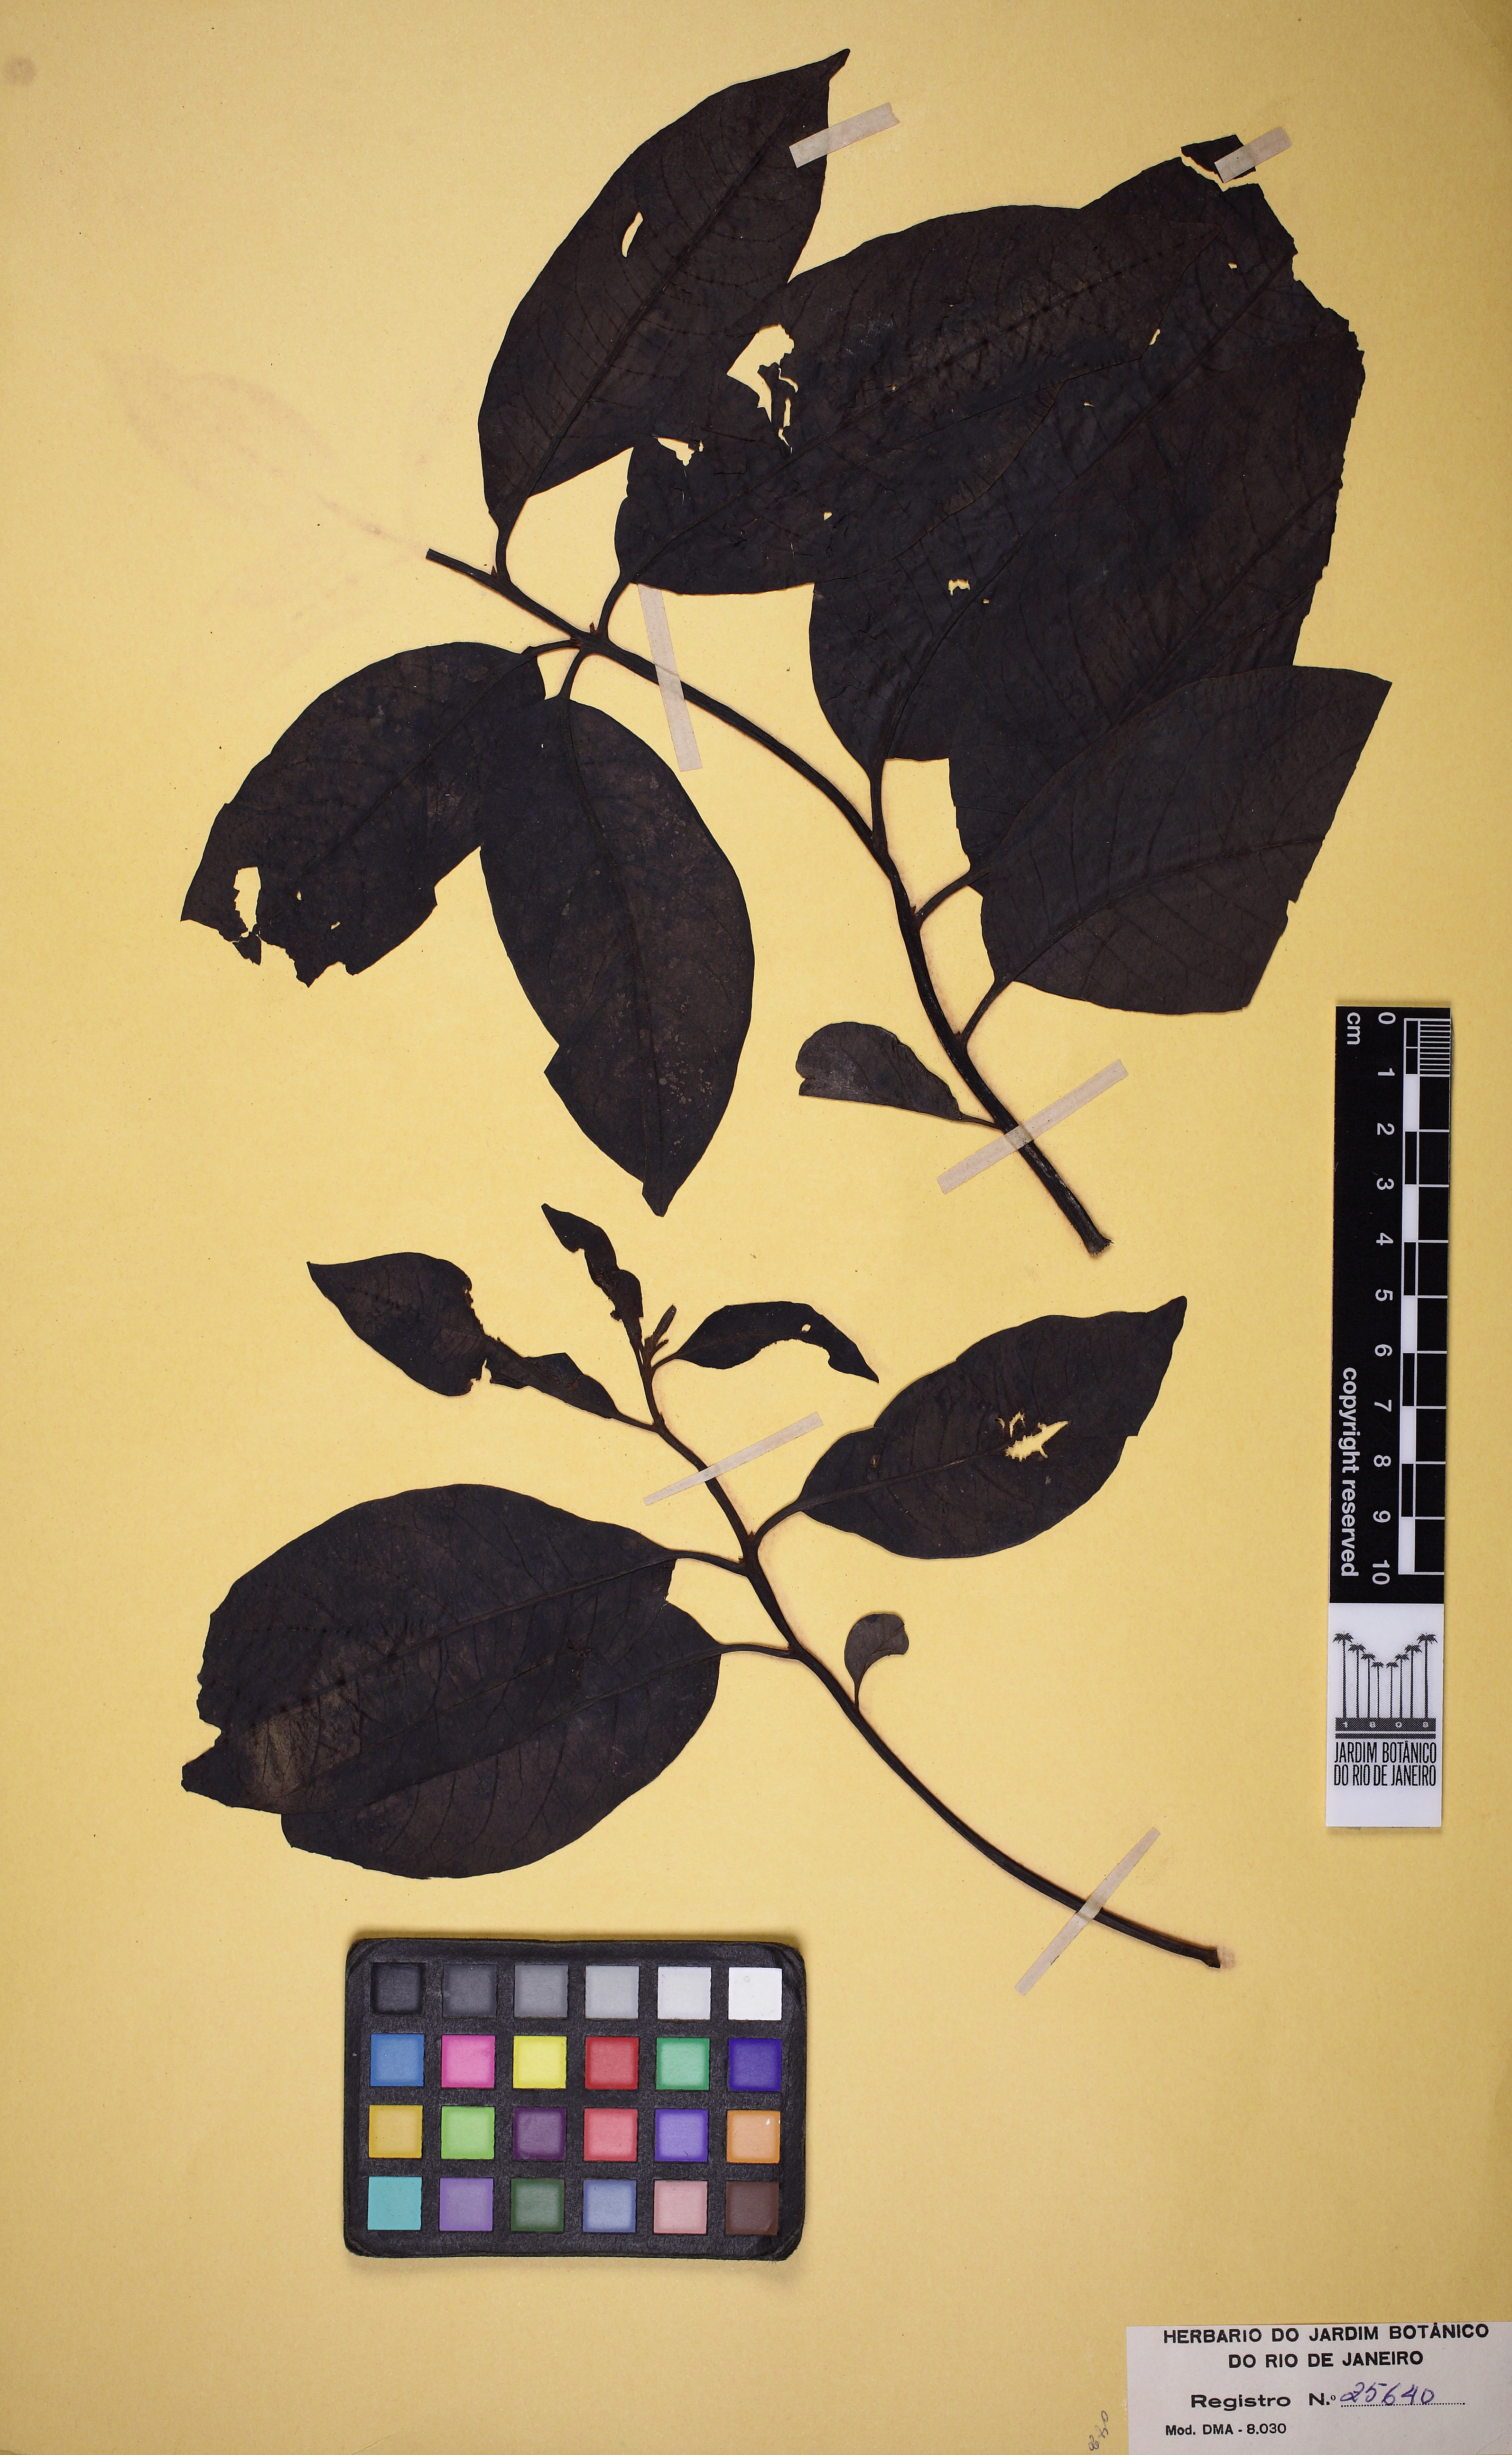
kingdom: Plantae
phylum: Tracheophyta
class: Magnoliopsida
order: Caryophyllales
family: Nyctaginaceae
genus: Neea
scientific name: Neea macrophylla
